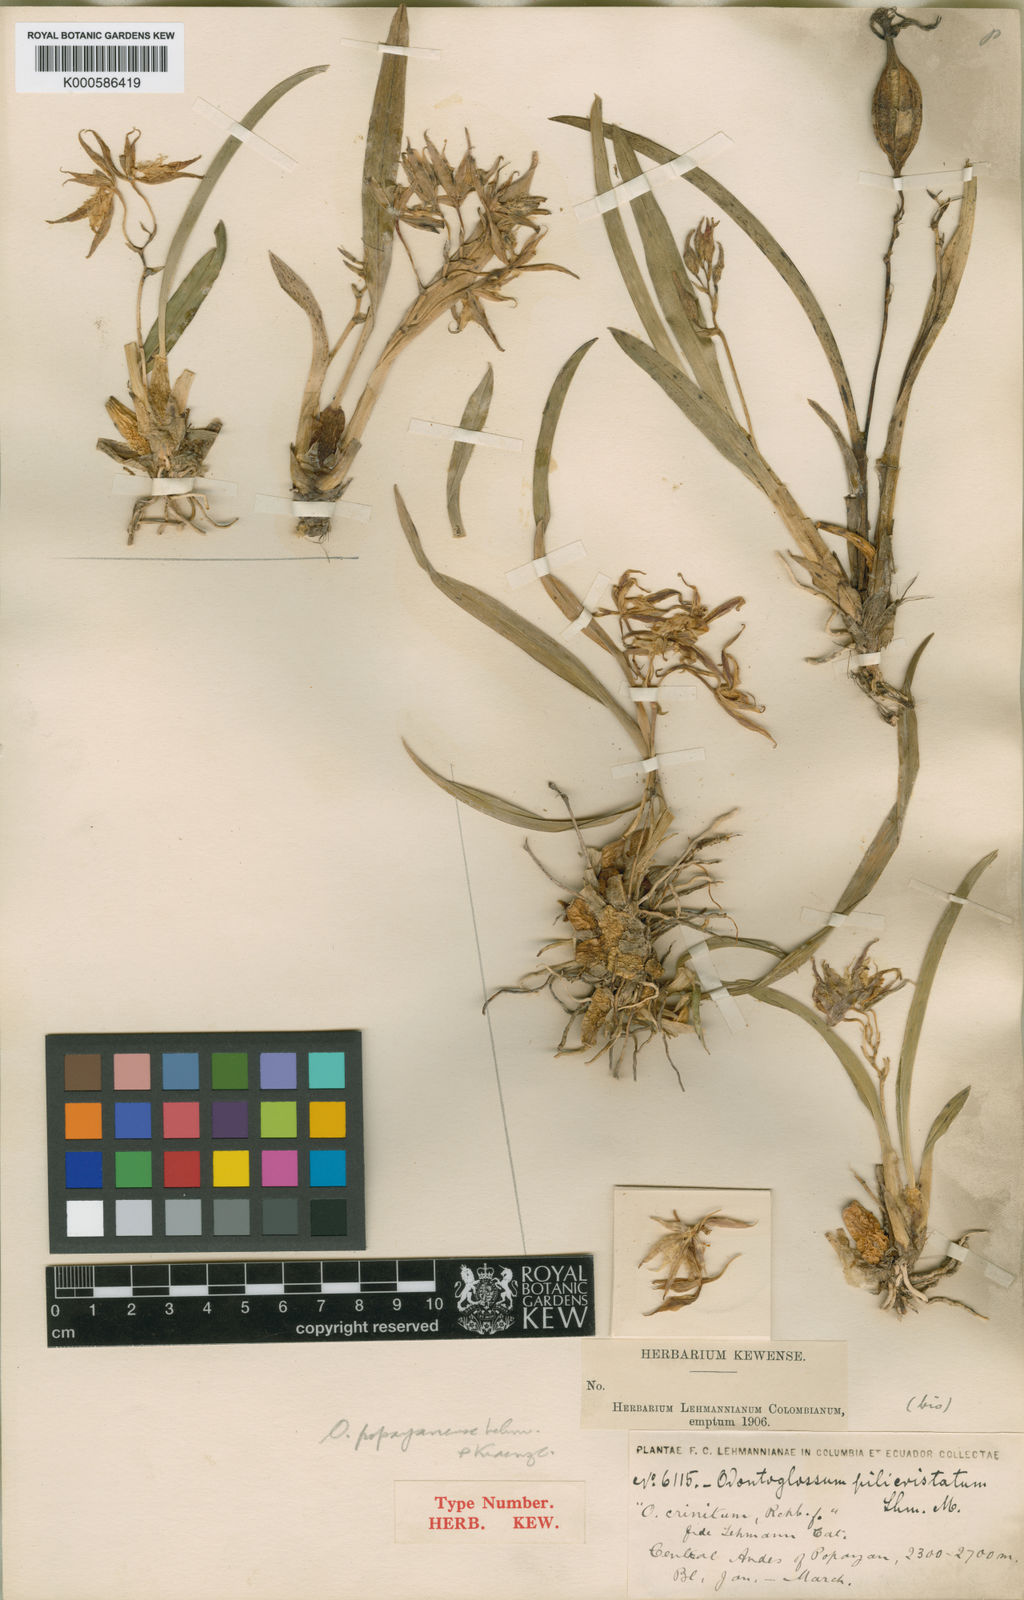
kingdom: Plantae
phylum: Tracheophyta
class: Liliopsida
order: Asparagales
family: Orchidaceae
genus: Oncidium
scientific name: Oncidium crinitum
